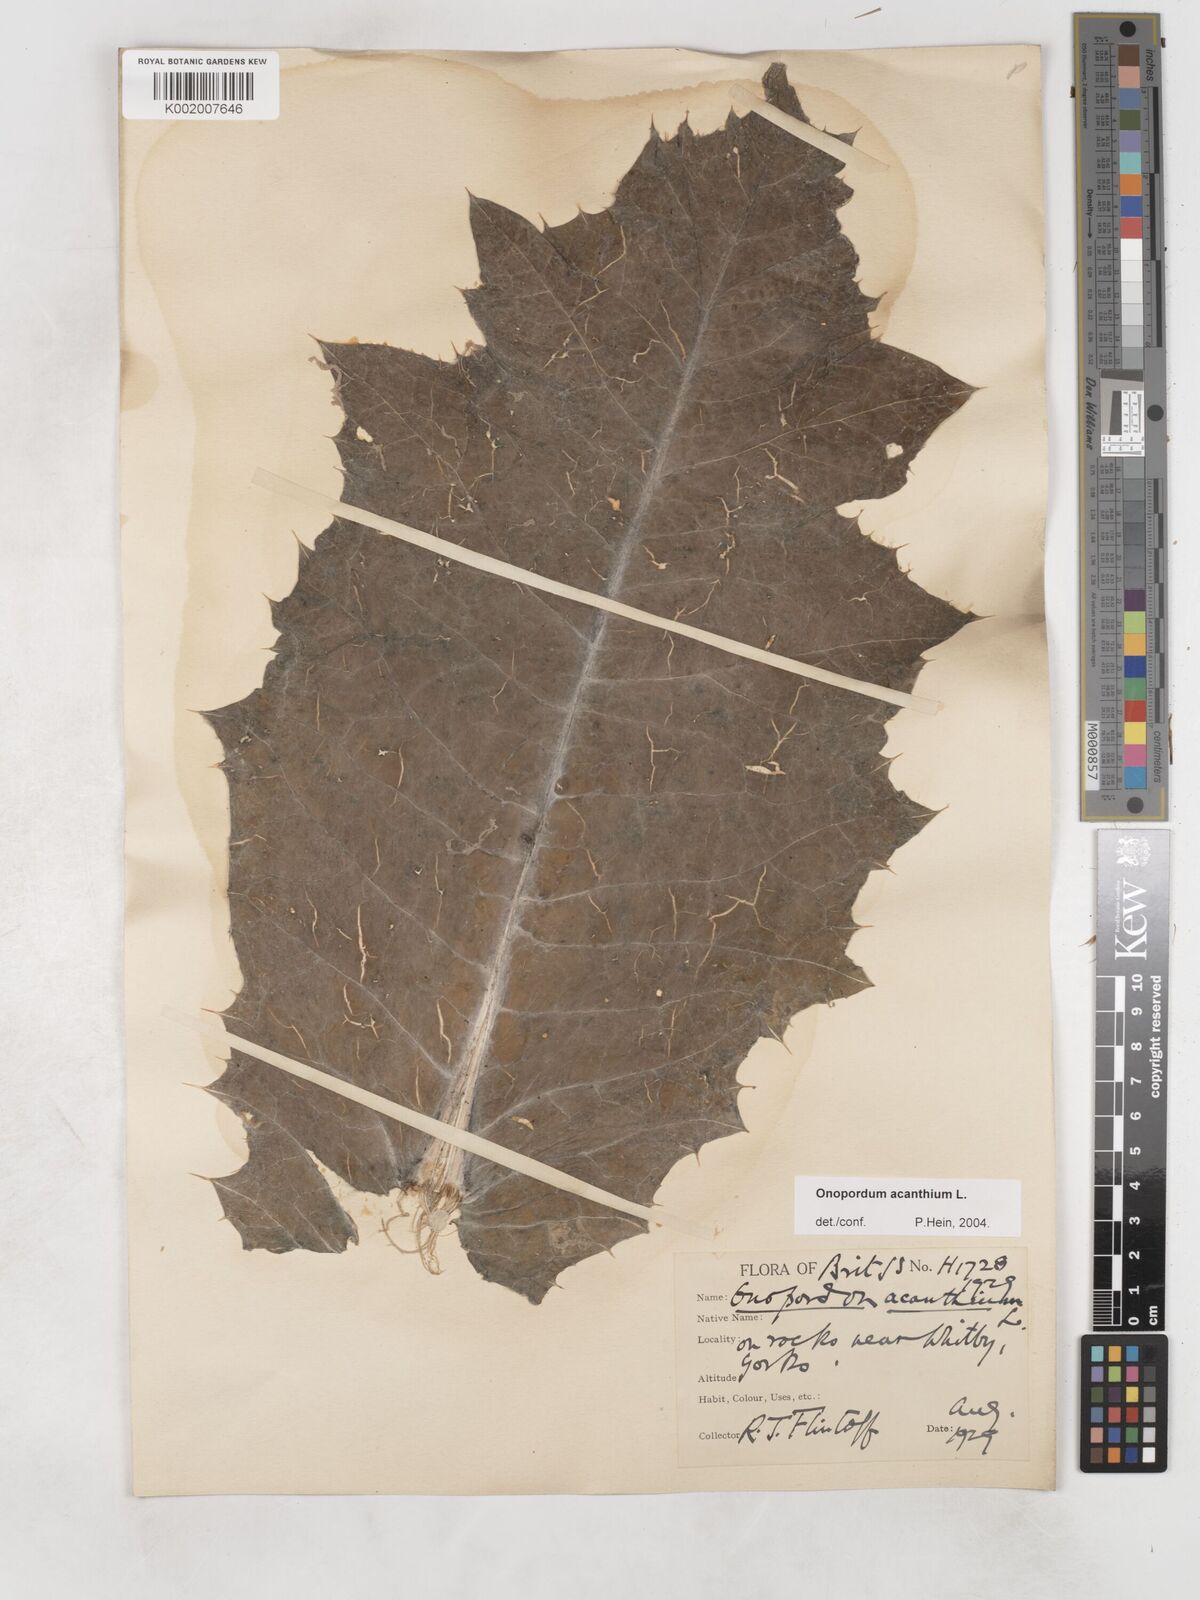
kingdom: Plantae
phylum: Tracheophyta
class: Magnoliopsida
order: Asterales
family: Asteraceae
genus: Onopordum
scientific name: Onopordum acanthium
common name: Scotch thistle
